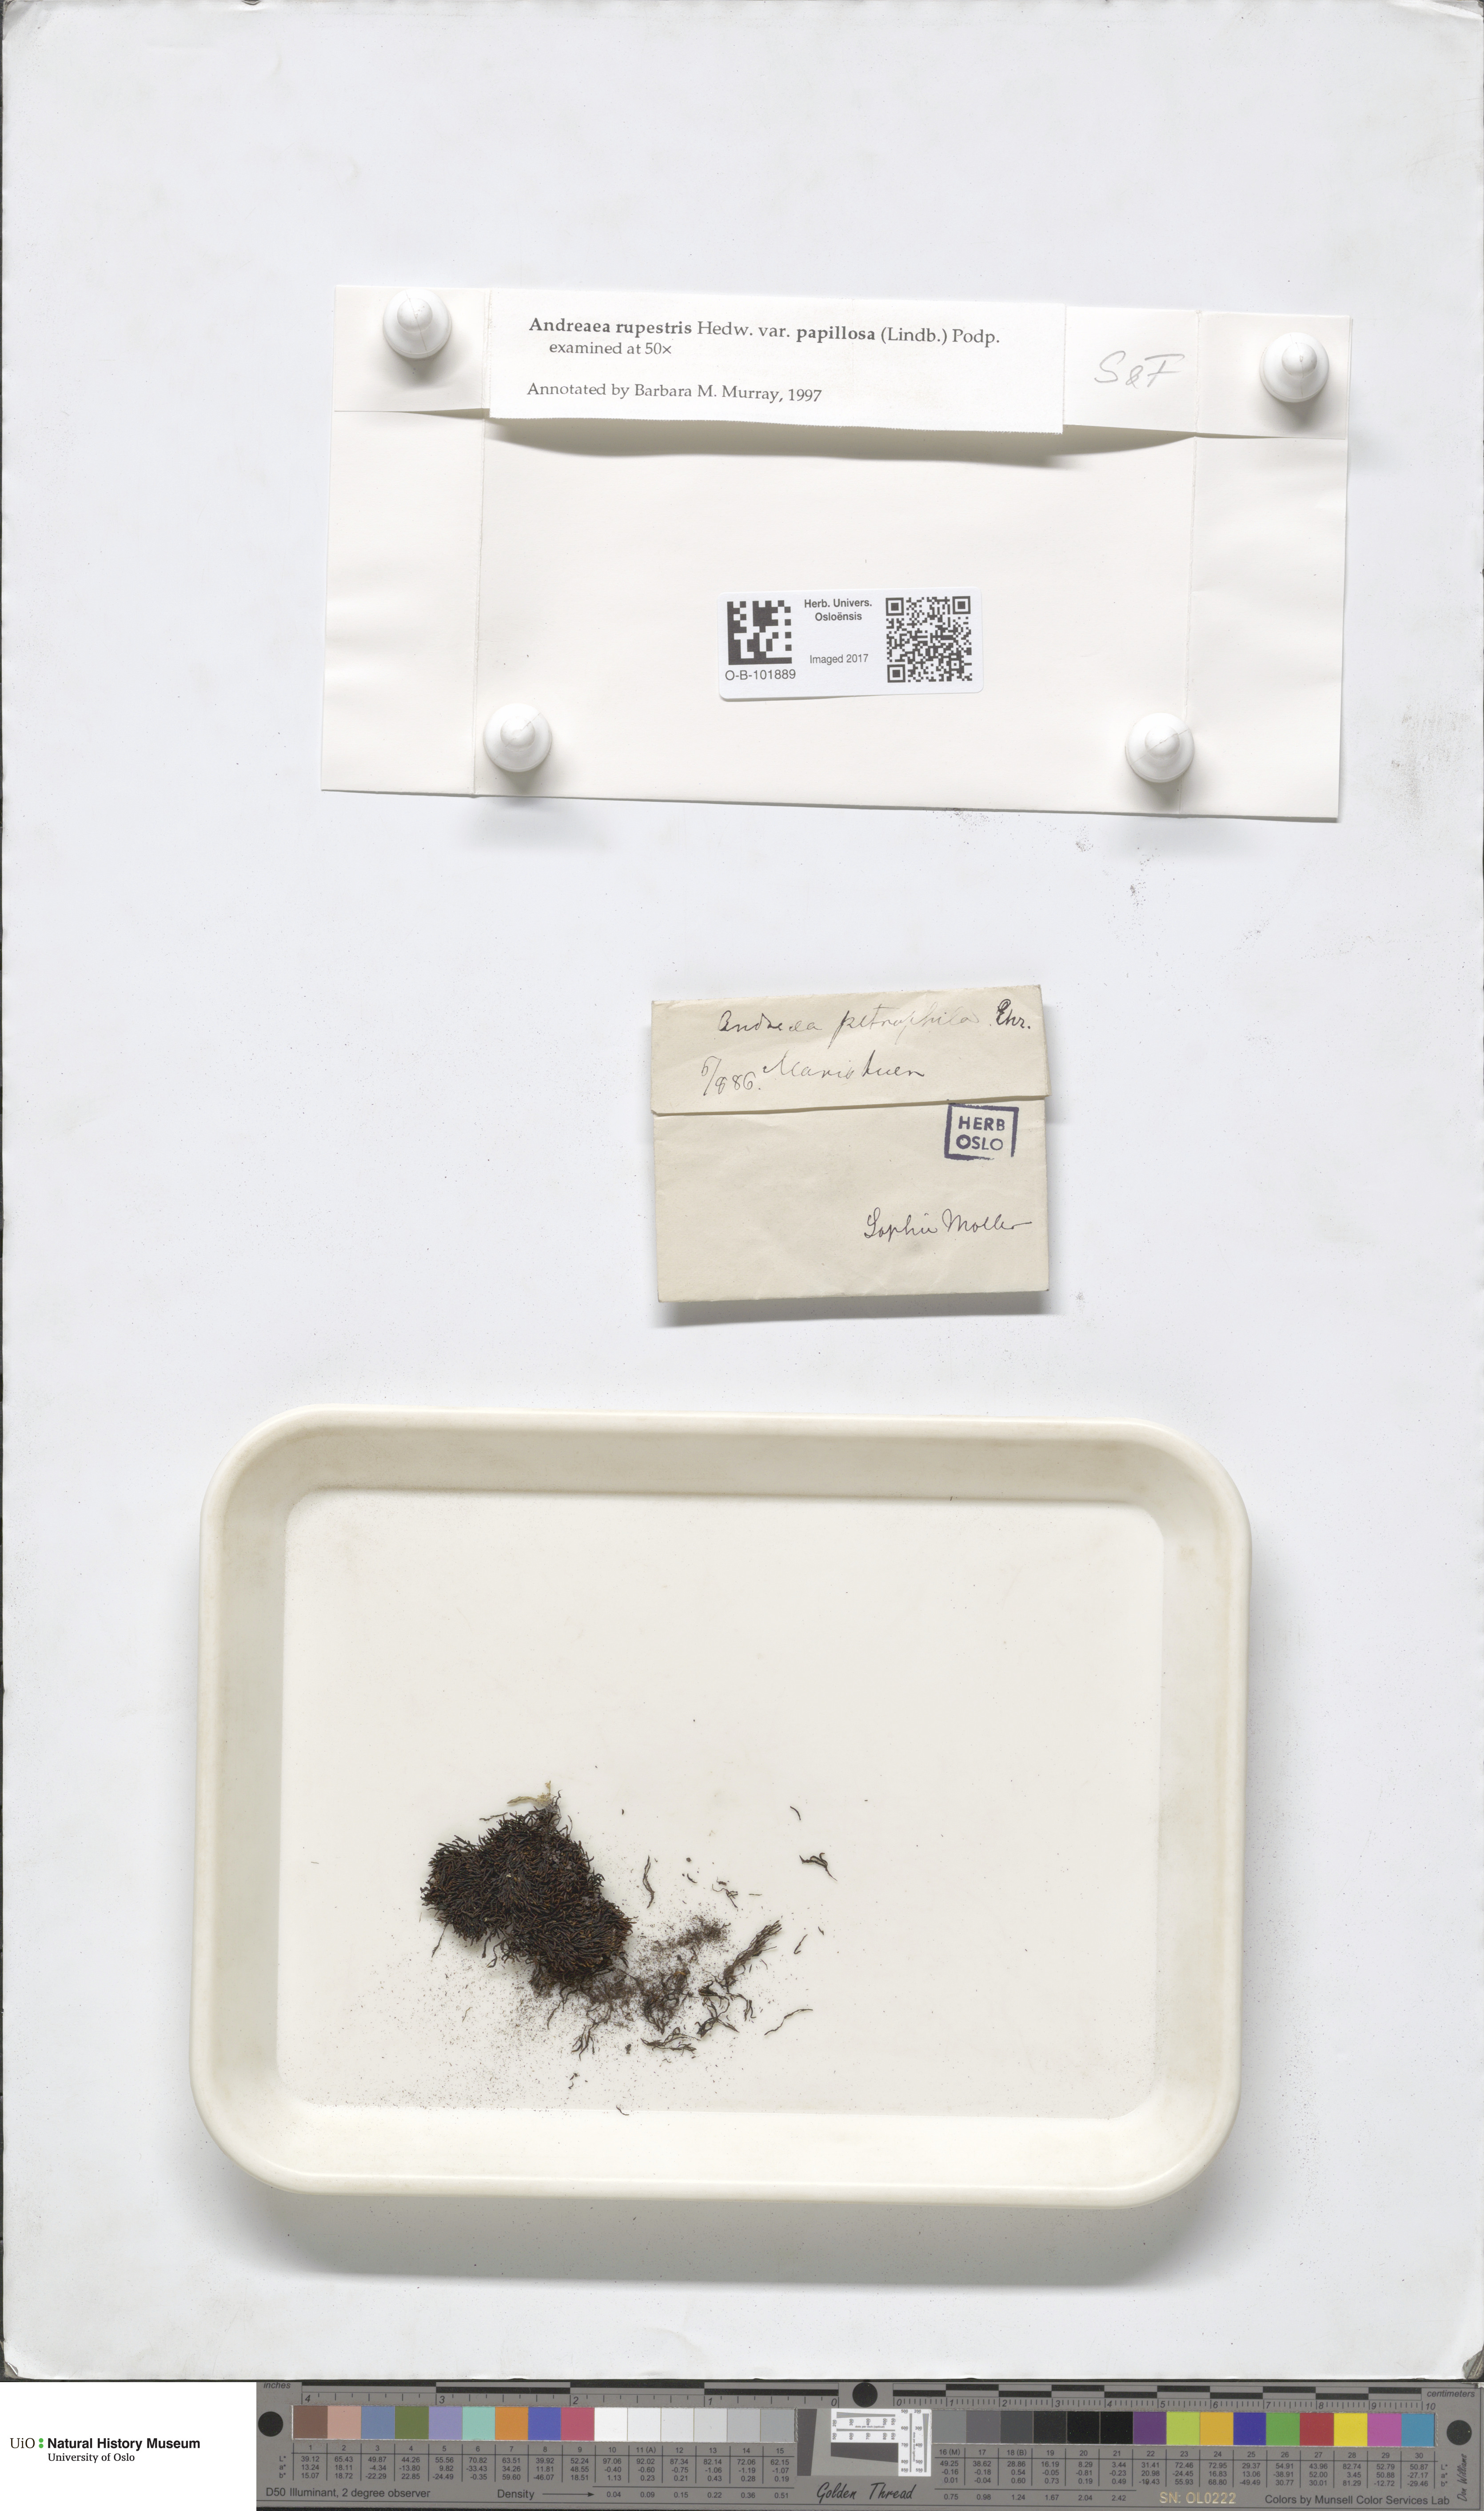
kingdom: Plantae
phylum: Bryophyta
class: Andreaeopsida
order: Andreaeales
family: Andreaeaceae
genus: Andreaea
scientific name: Andreaea rupestris
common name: Black rock moss
